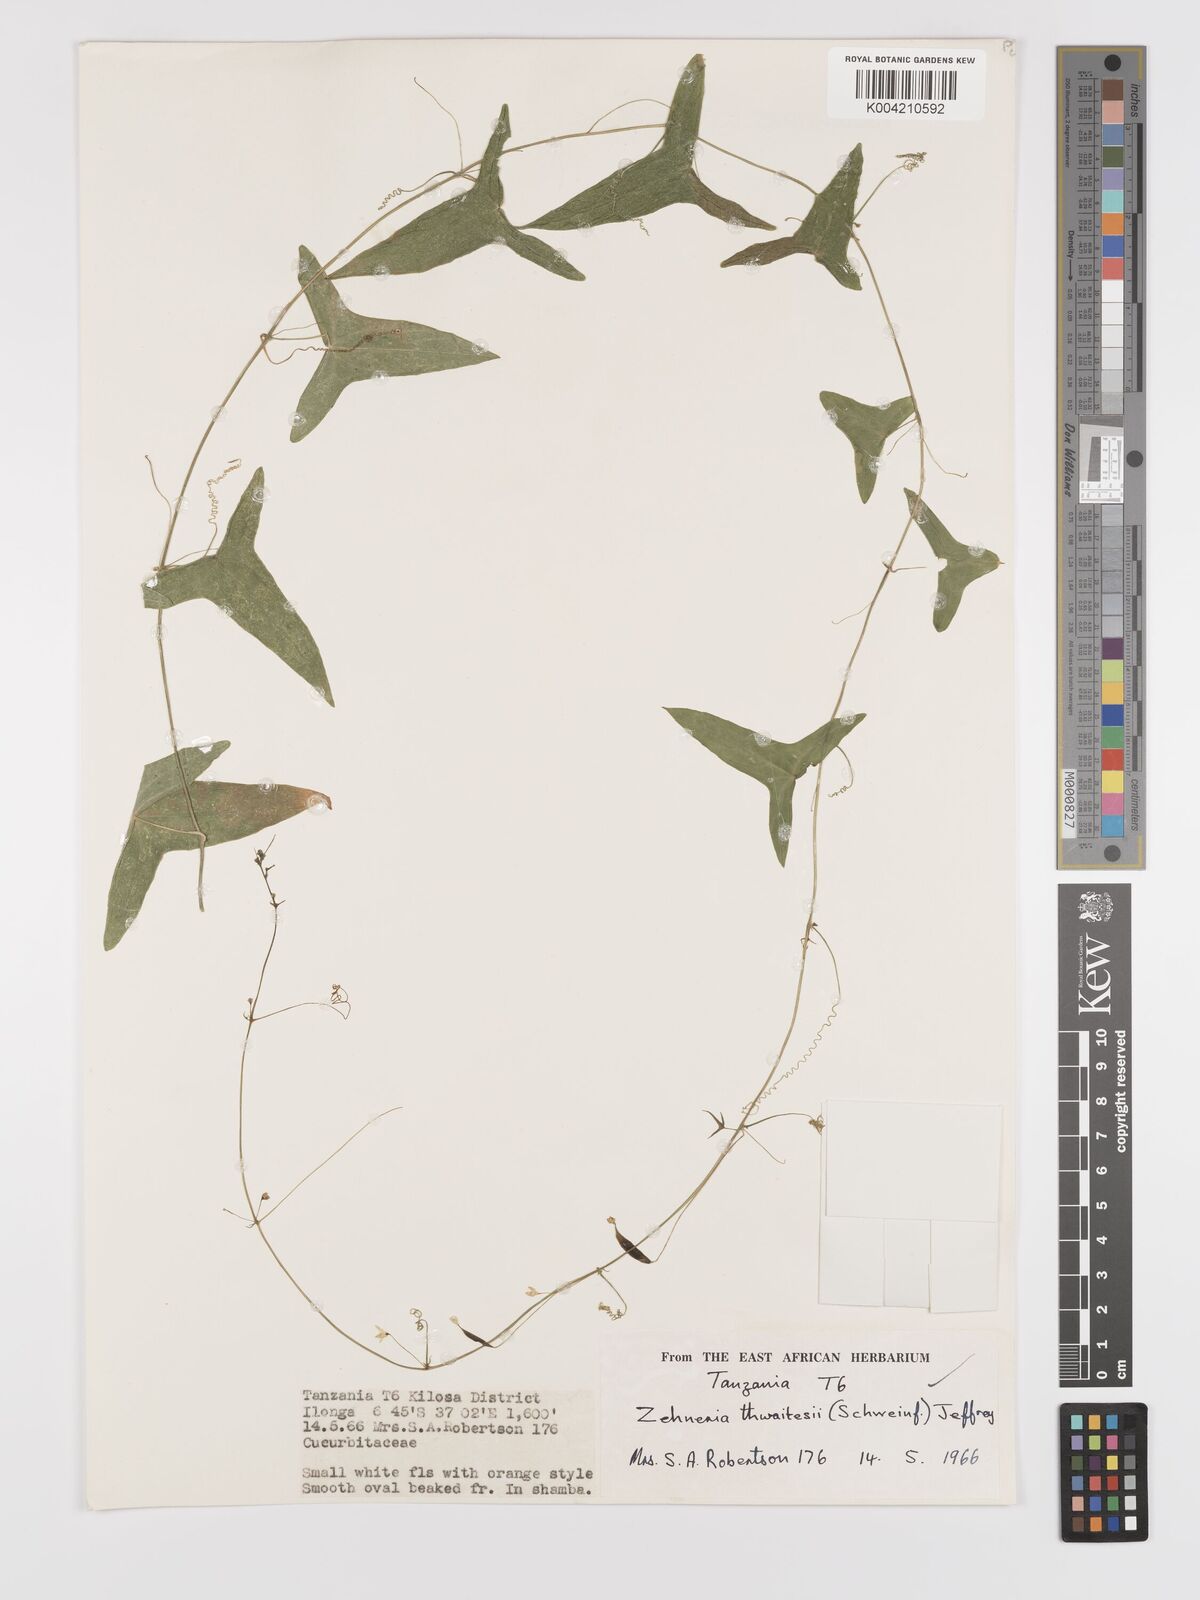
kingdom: Plantae
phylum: Tracheophyta
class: Magnoliopsida
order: Cucurbitales
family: Cucurbitaceae
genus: Zehneria
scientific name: Zehneria thwaitesii
